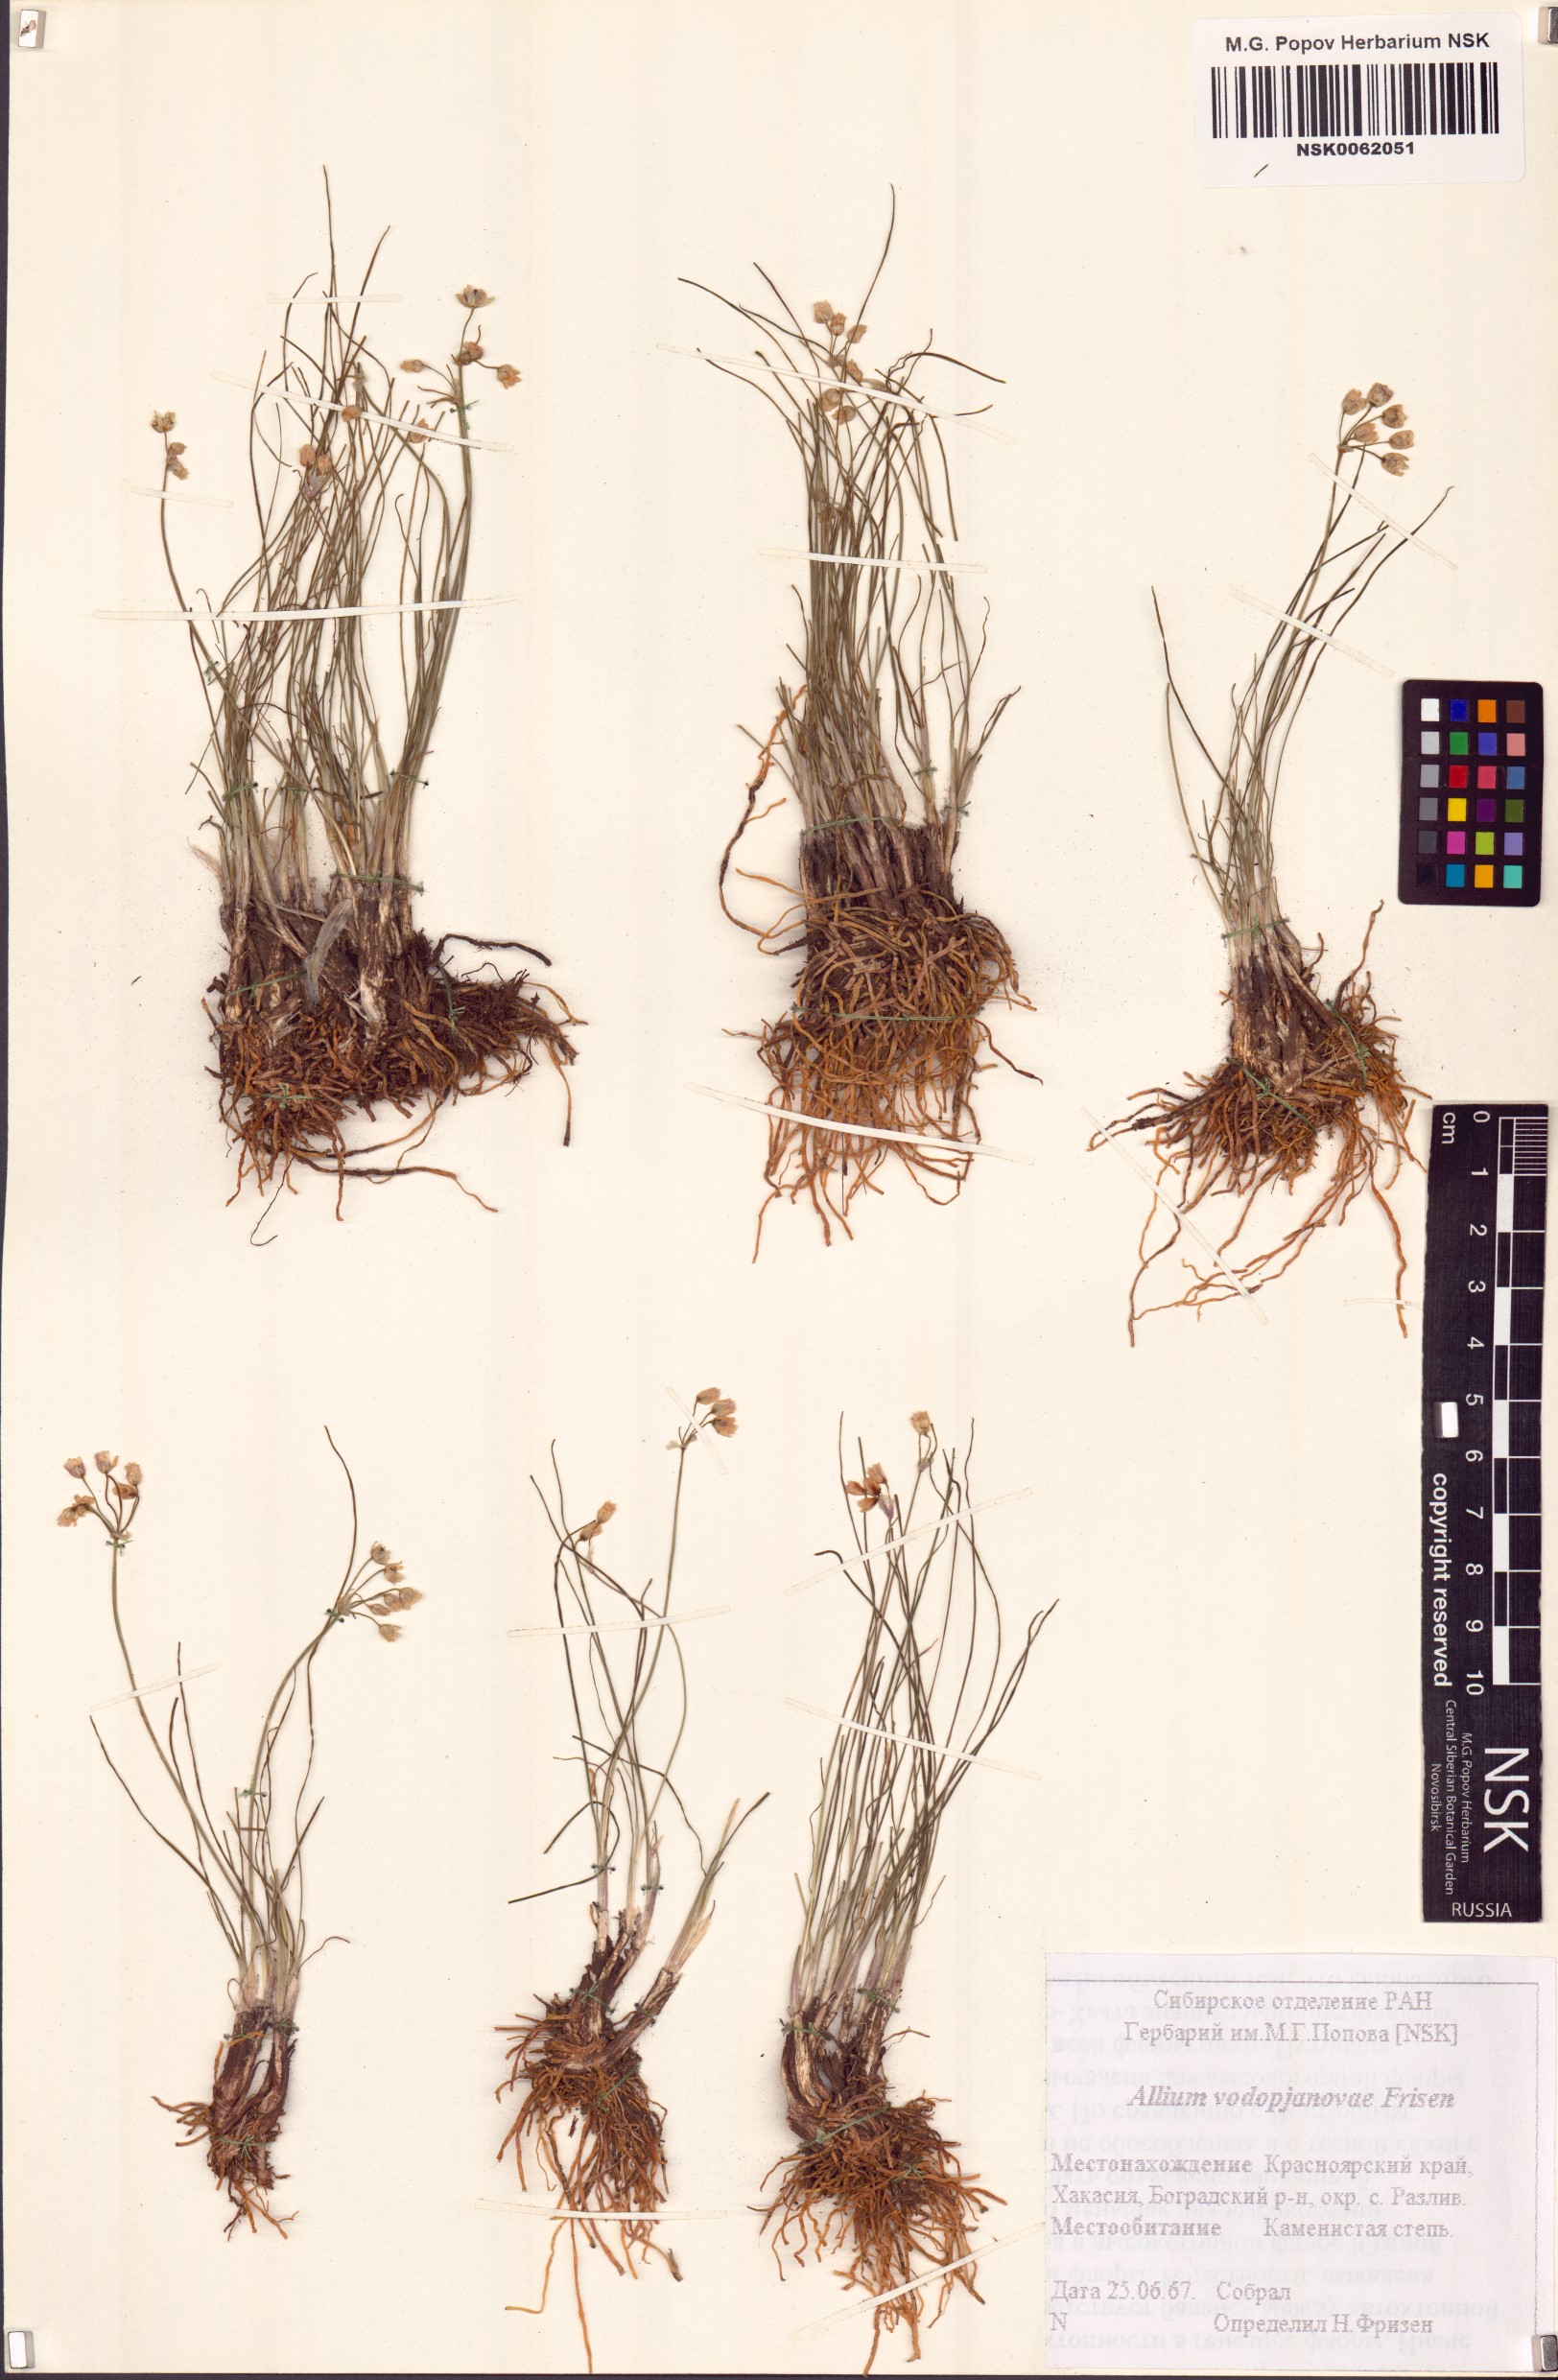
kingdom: Plantae
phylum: Tracheophyta
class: Liliopsida
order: Asparagales
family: Amaryllidaceae
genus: Allium
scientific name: Allium vodopjanovae
